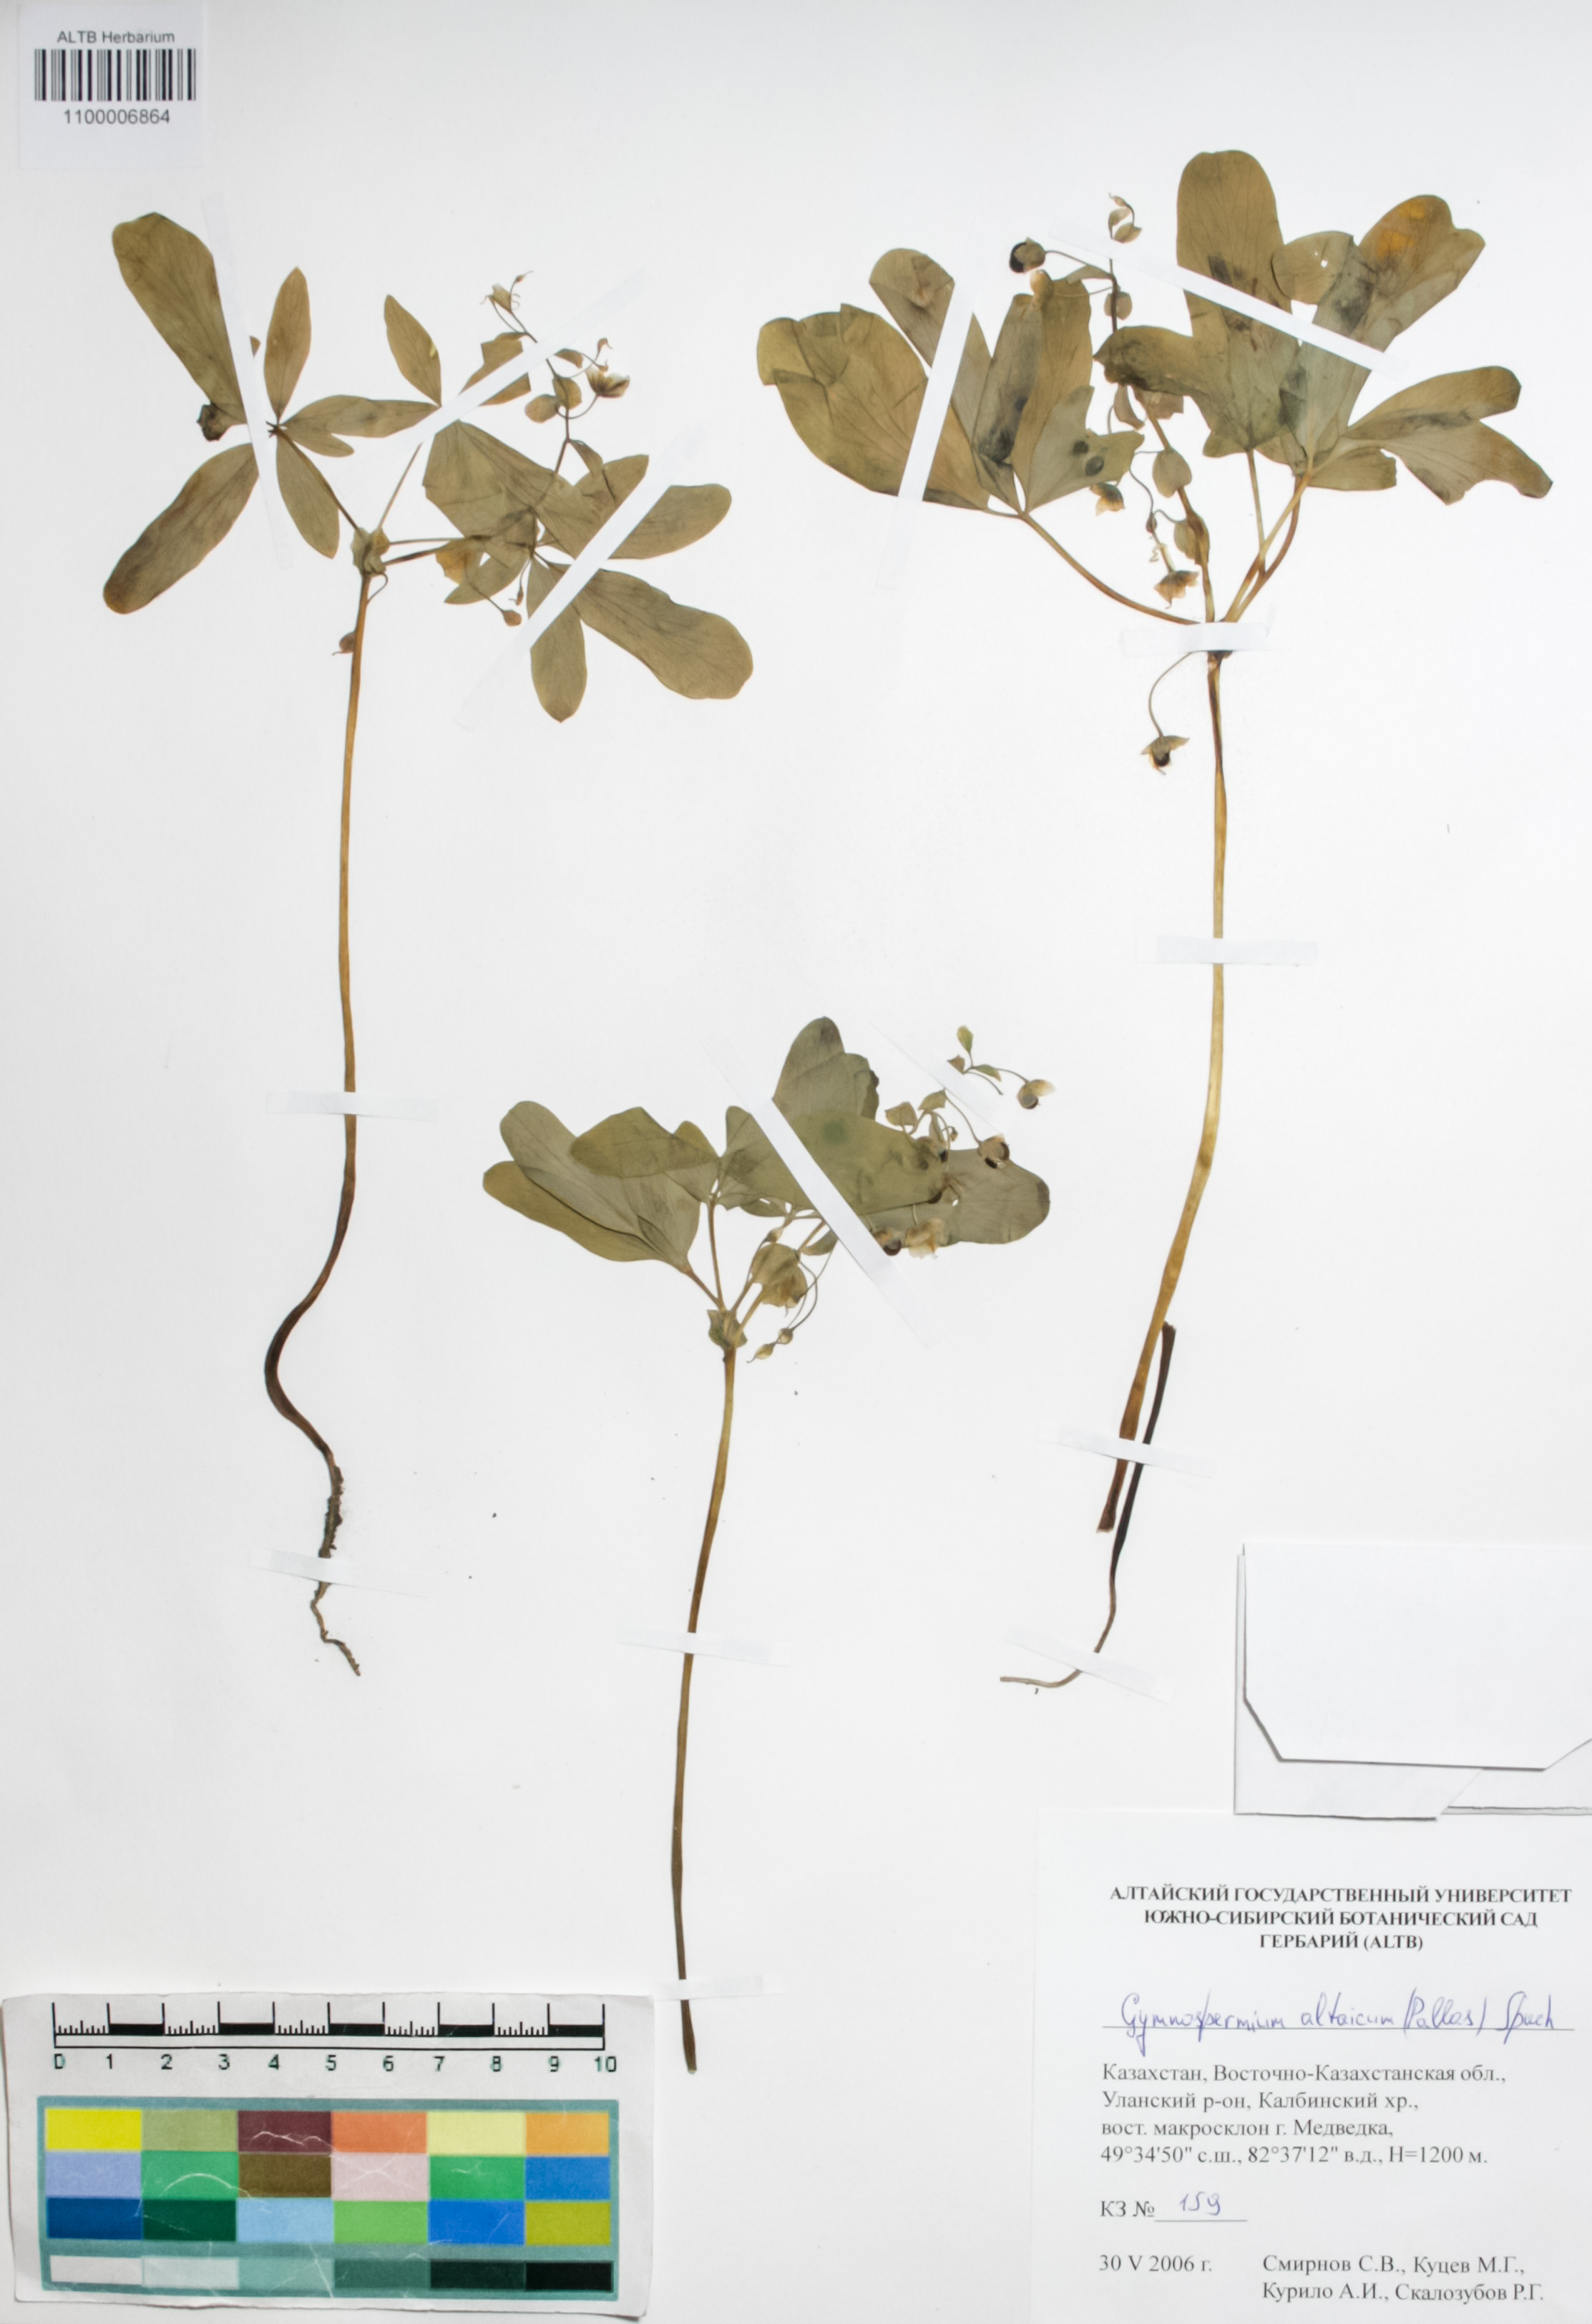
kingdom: Plantae
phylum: Tracheophyta
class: Magnoliopsida
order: Ranunculales
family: Berberidaceae
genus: Gymnospermium
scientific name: Gymnospermium altaicum
